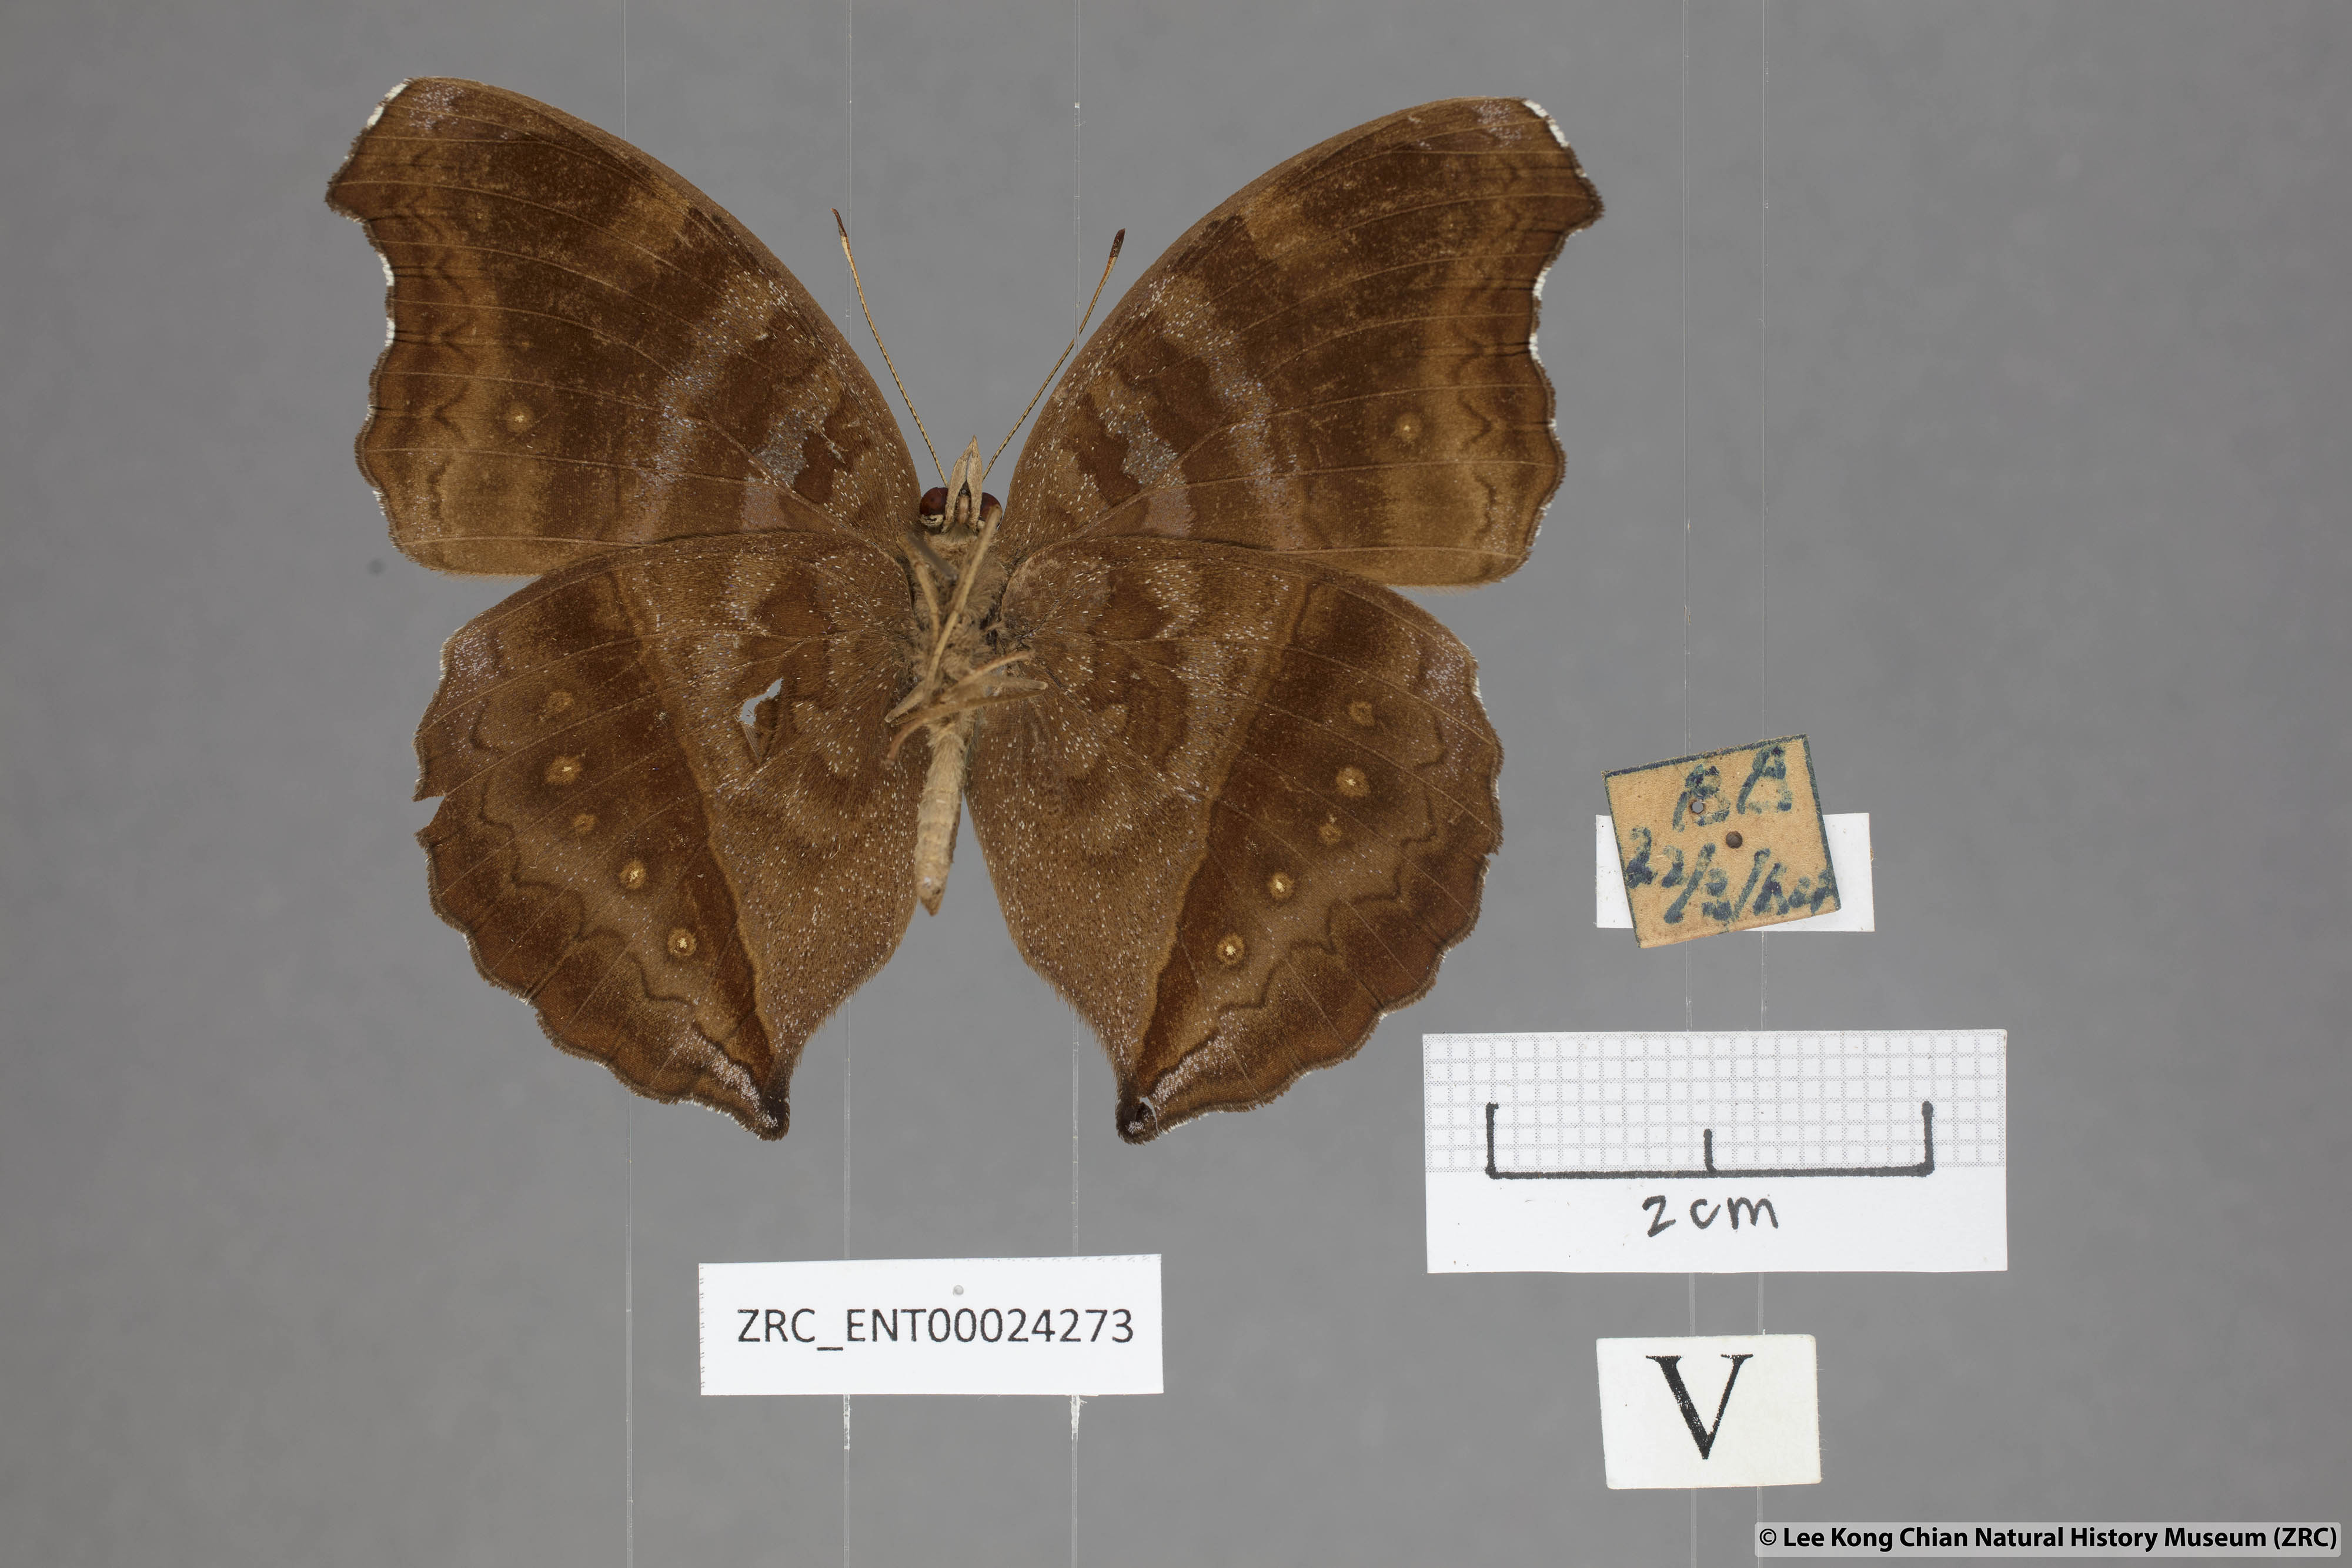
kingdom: Animalia
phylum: Arthropoda
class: Insecta
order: Lepidoptera
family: Nymphalidae
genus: Junonia
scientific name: Junonia iphita
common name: Chocolate pansy
